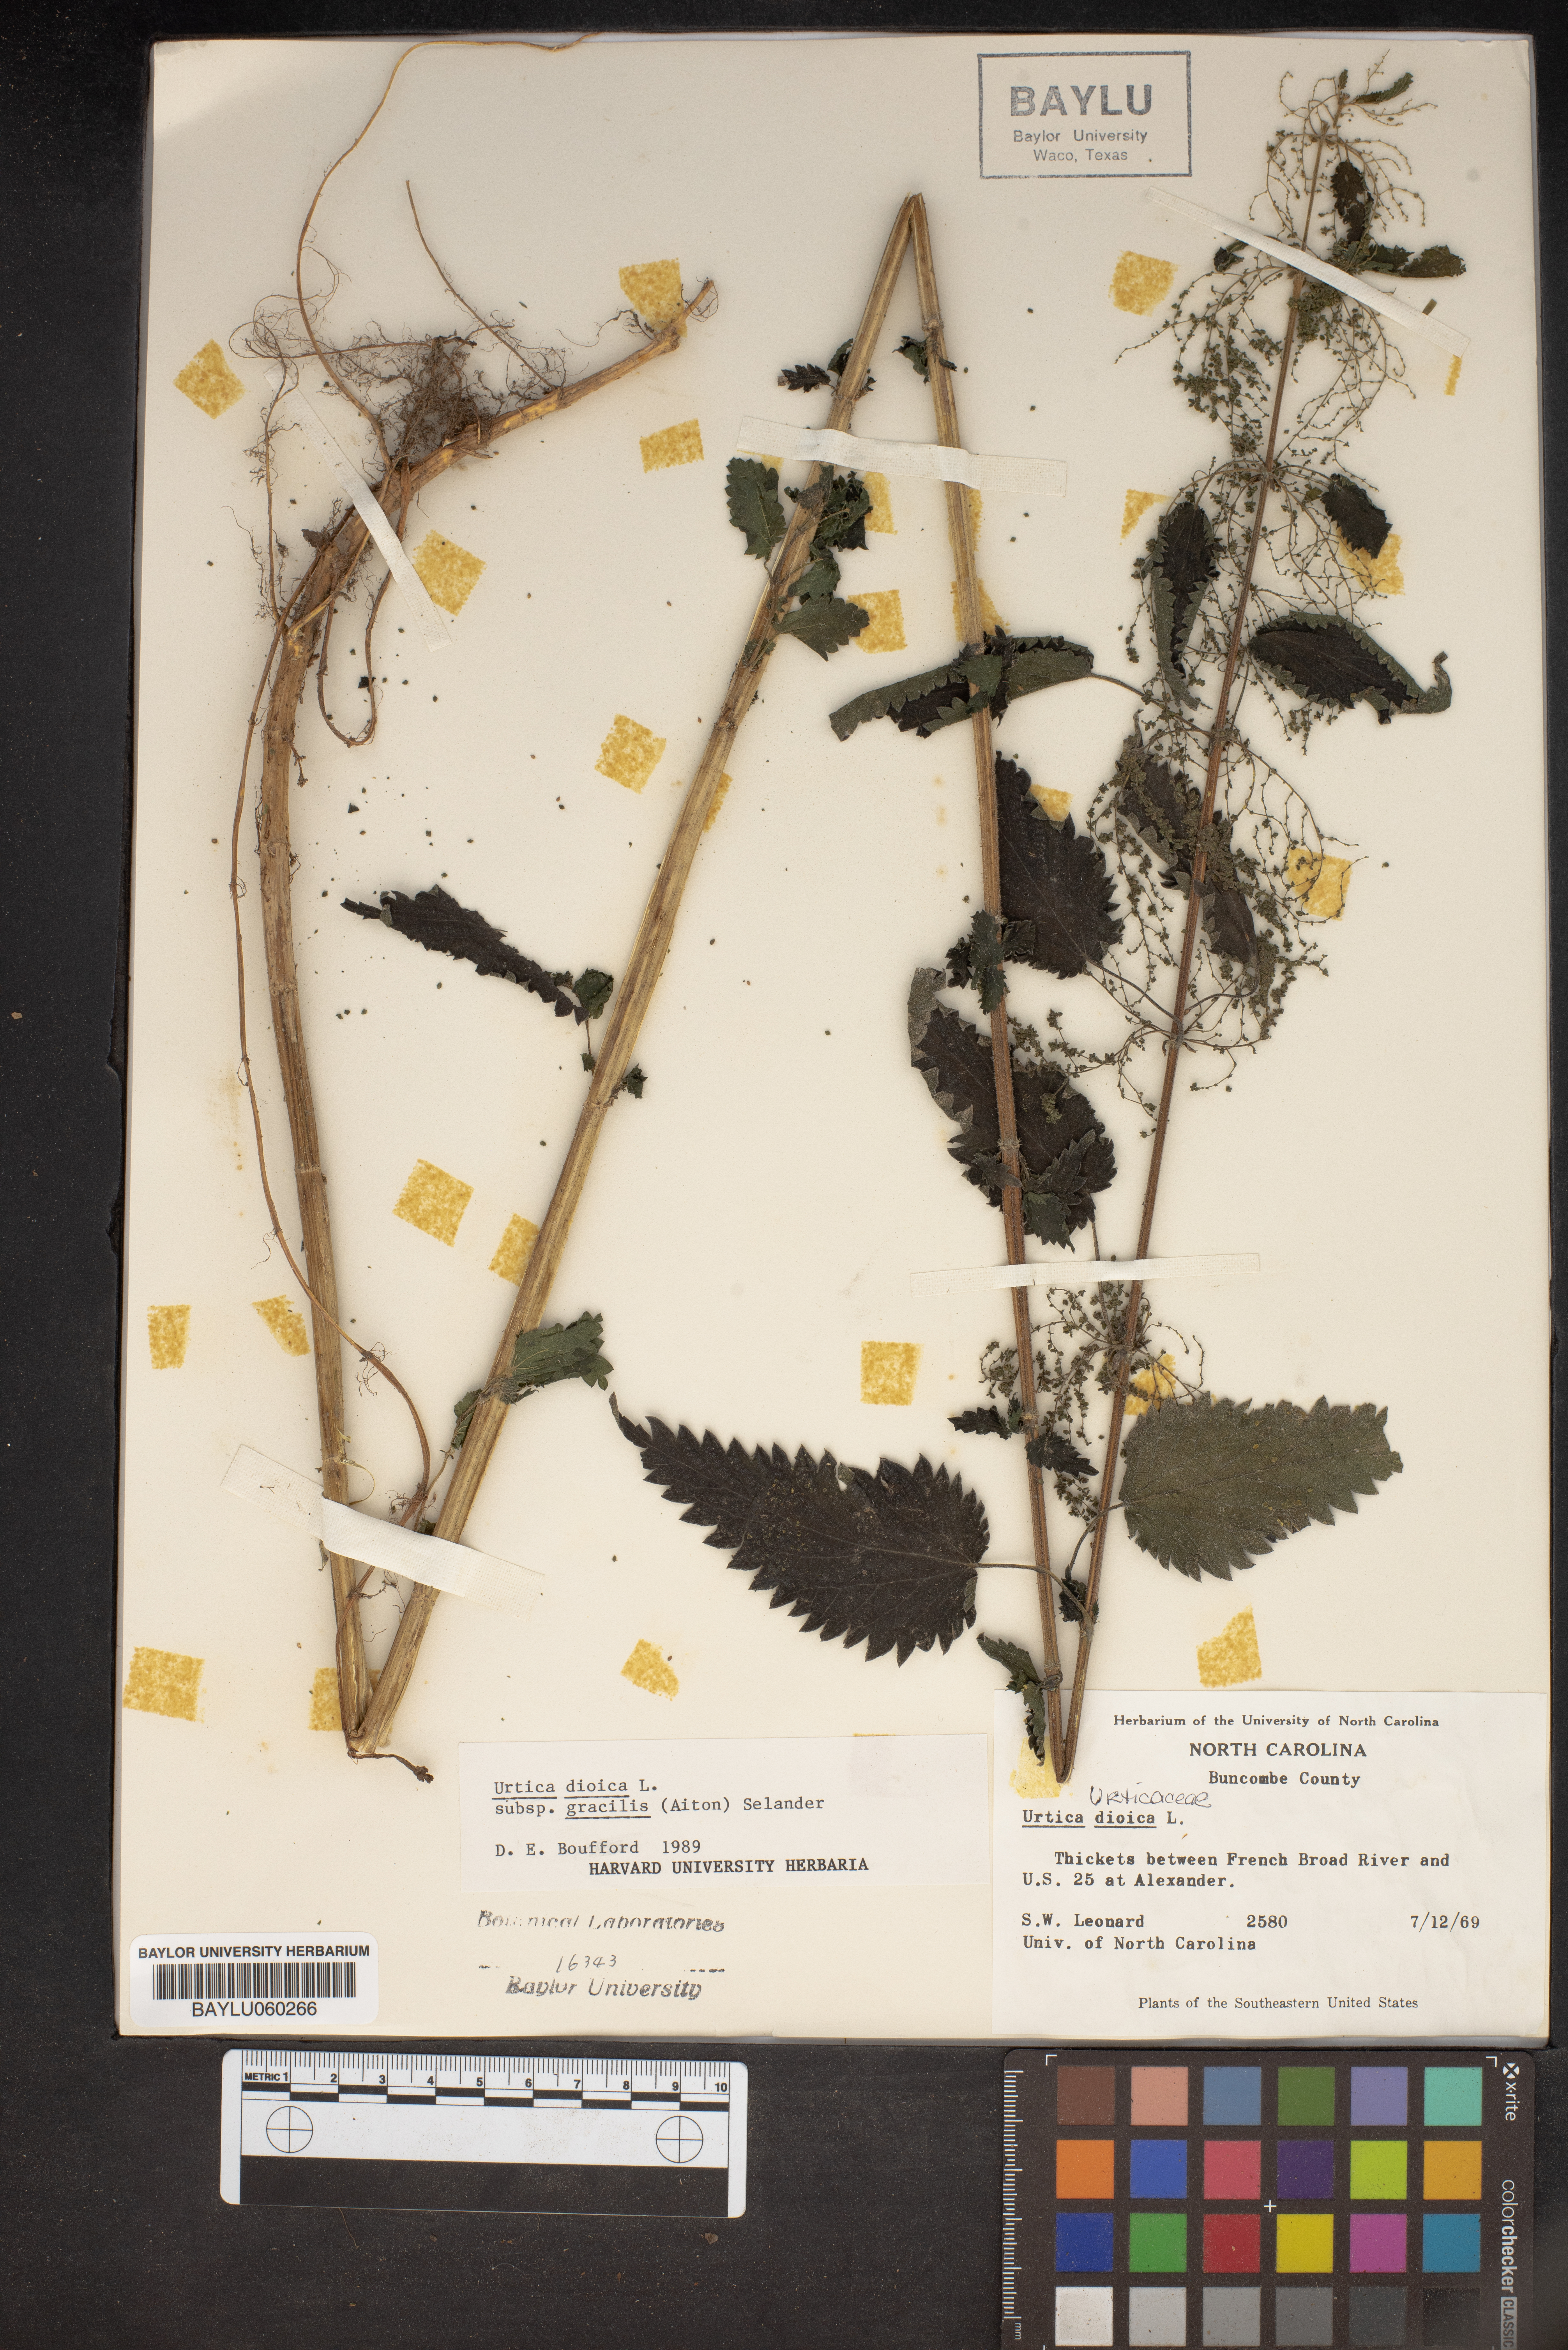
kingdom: Plantae
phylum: Tracheophyta
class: Magnoliopsida
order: Rosales
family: Urticaceae
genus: Urtica
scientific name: Urtica gracilis
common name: Slender stinging nettle
